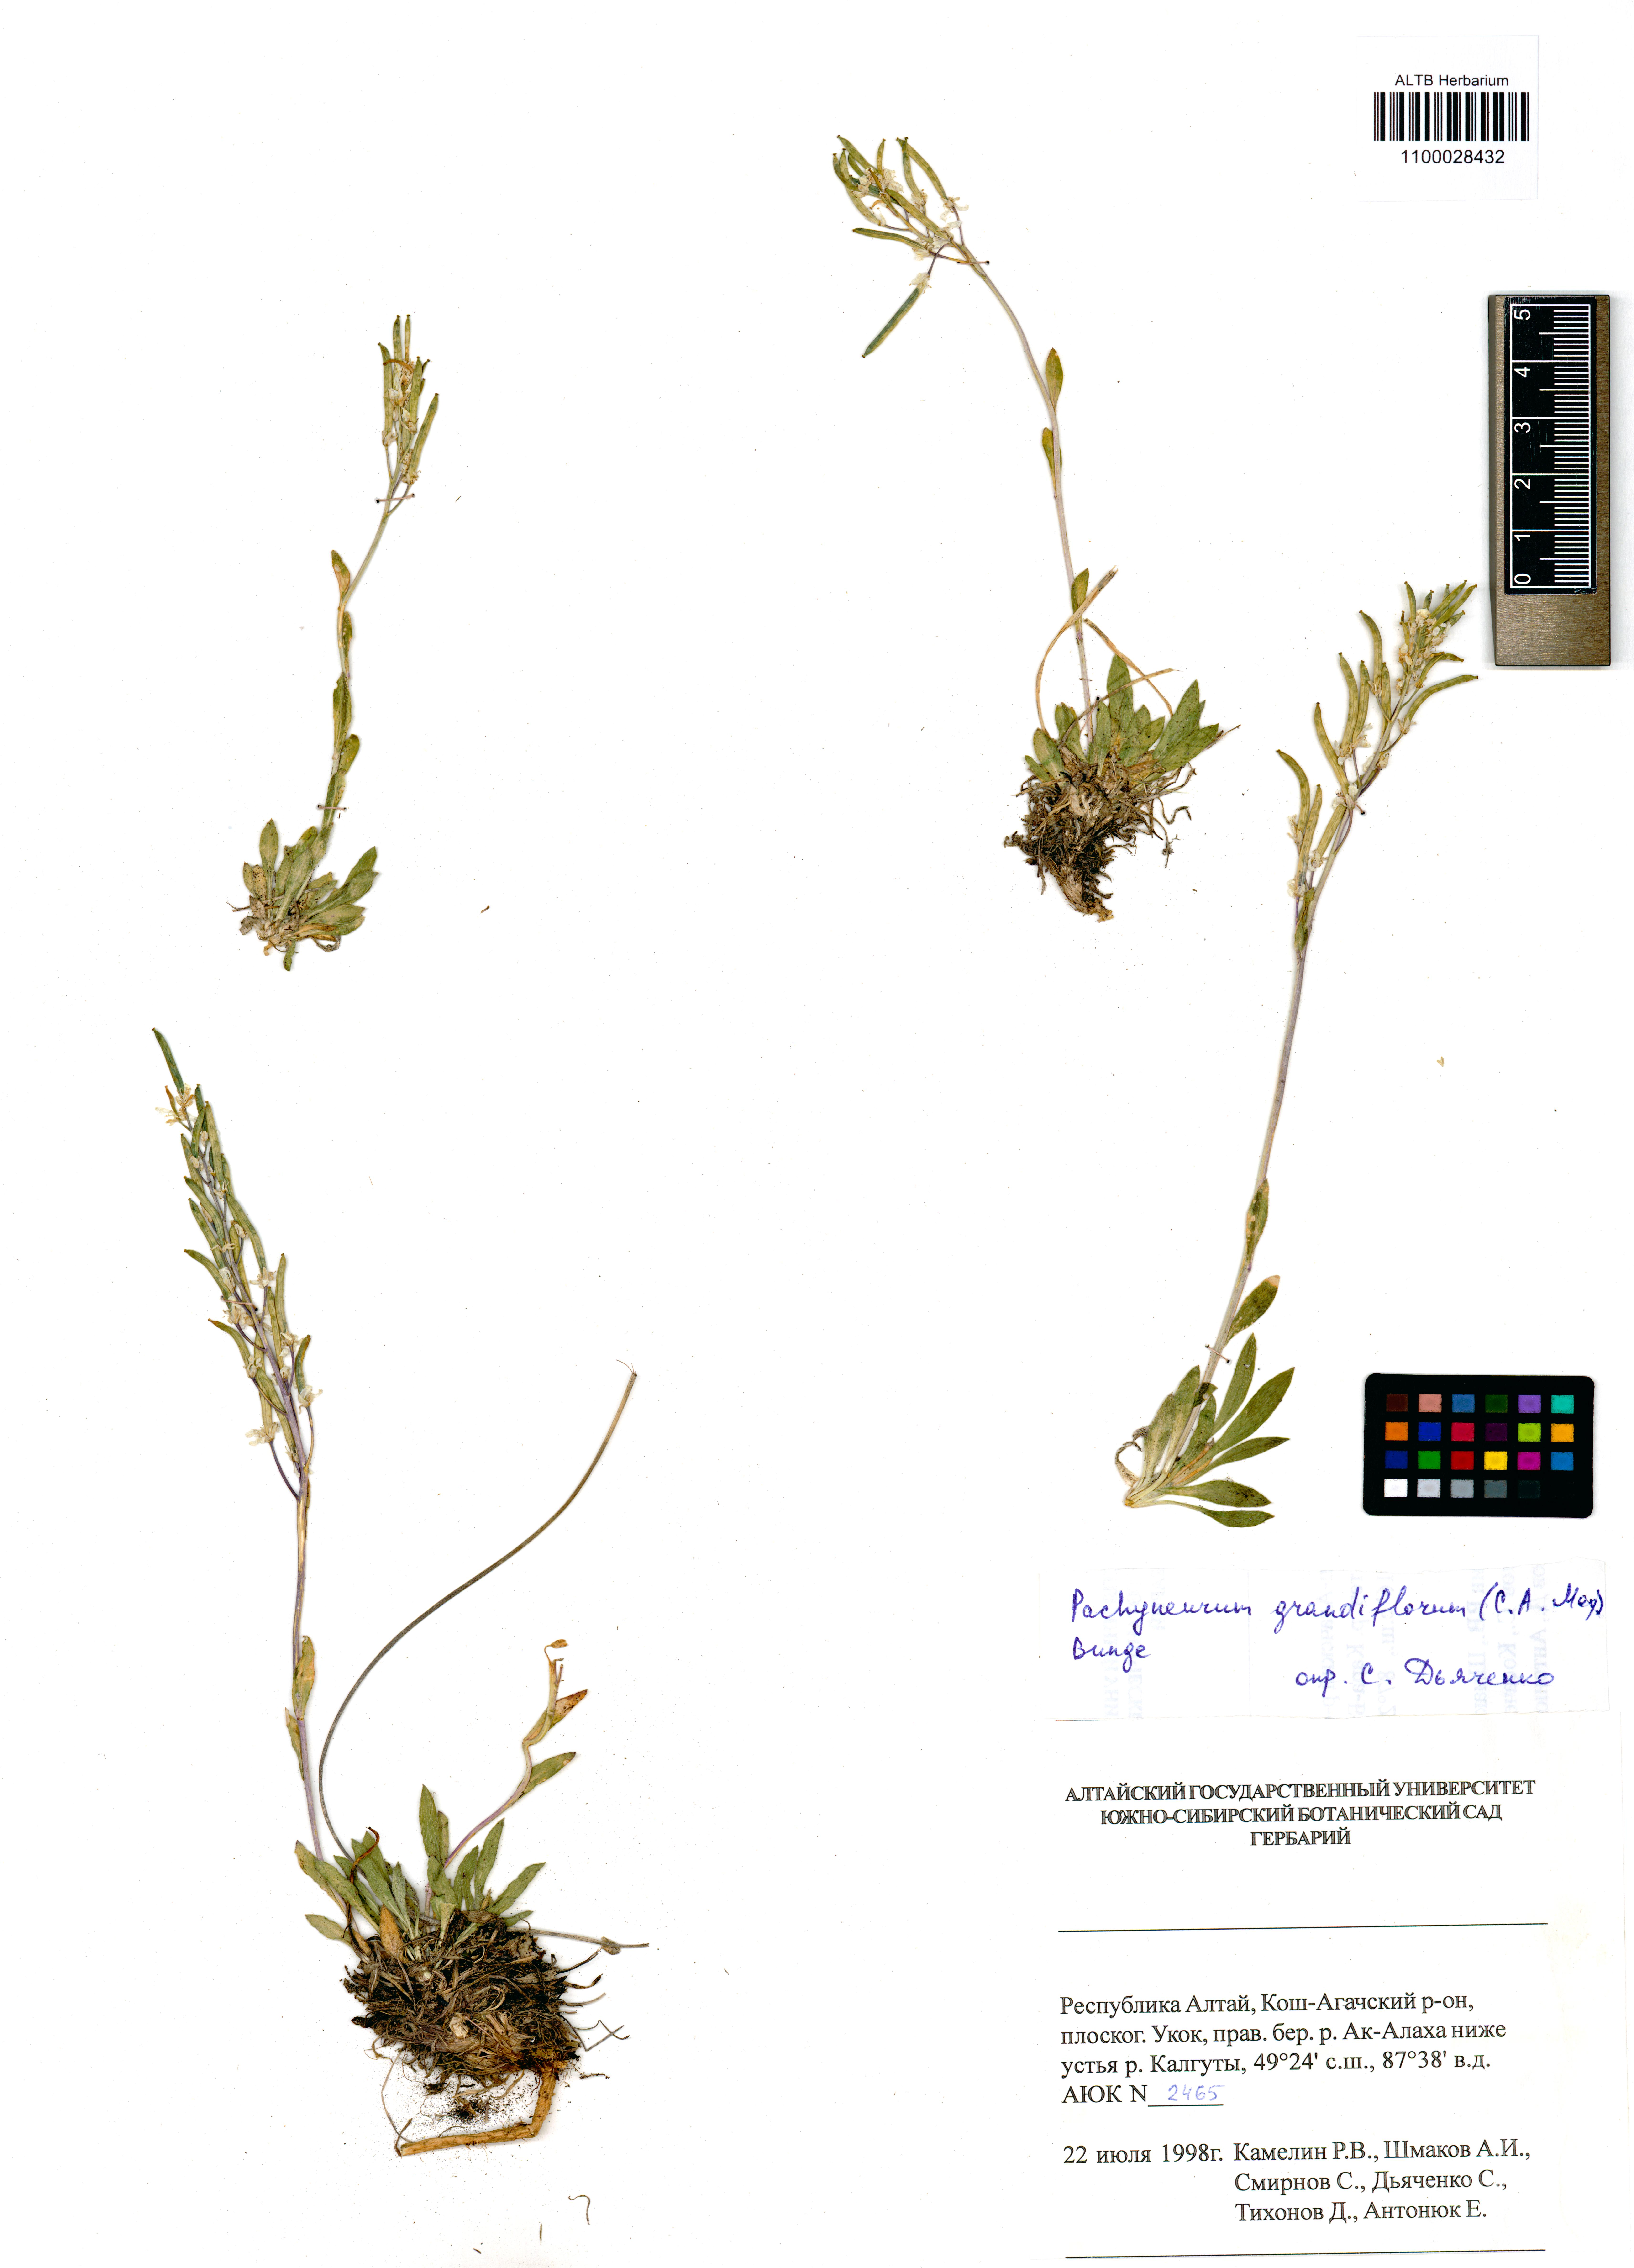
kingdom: Plantae
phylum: Tracheophyta
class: Magnoliopsida
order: Brassicales
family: Brassicaceae
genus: Pachyneurum
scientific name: Pachyneurum grandiflorum
